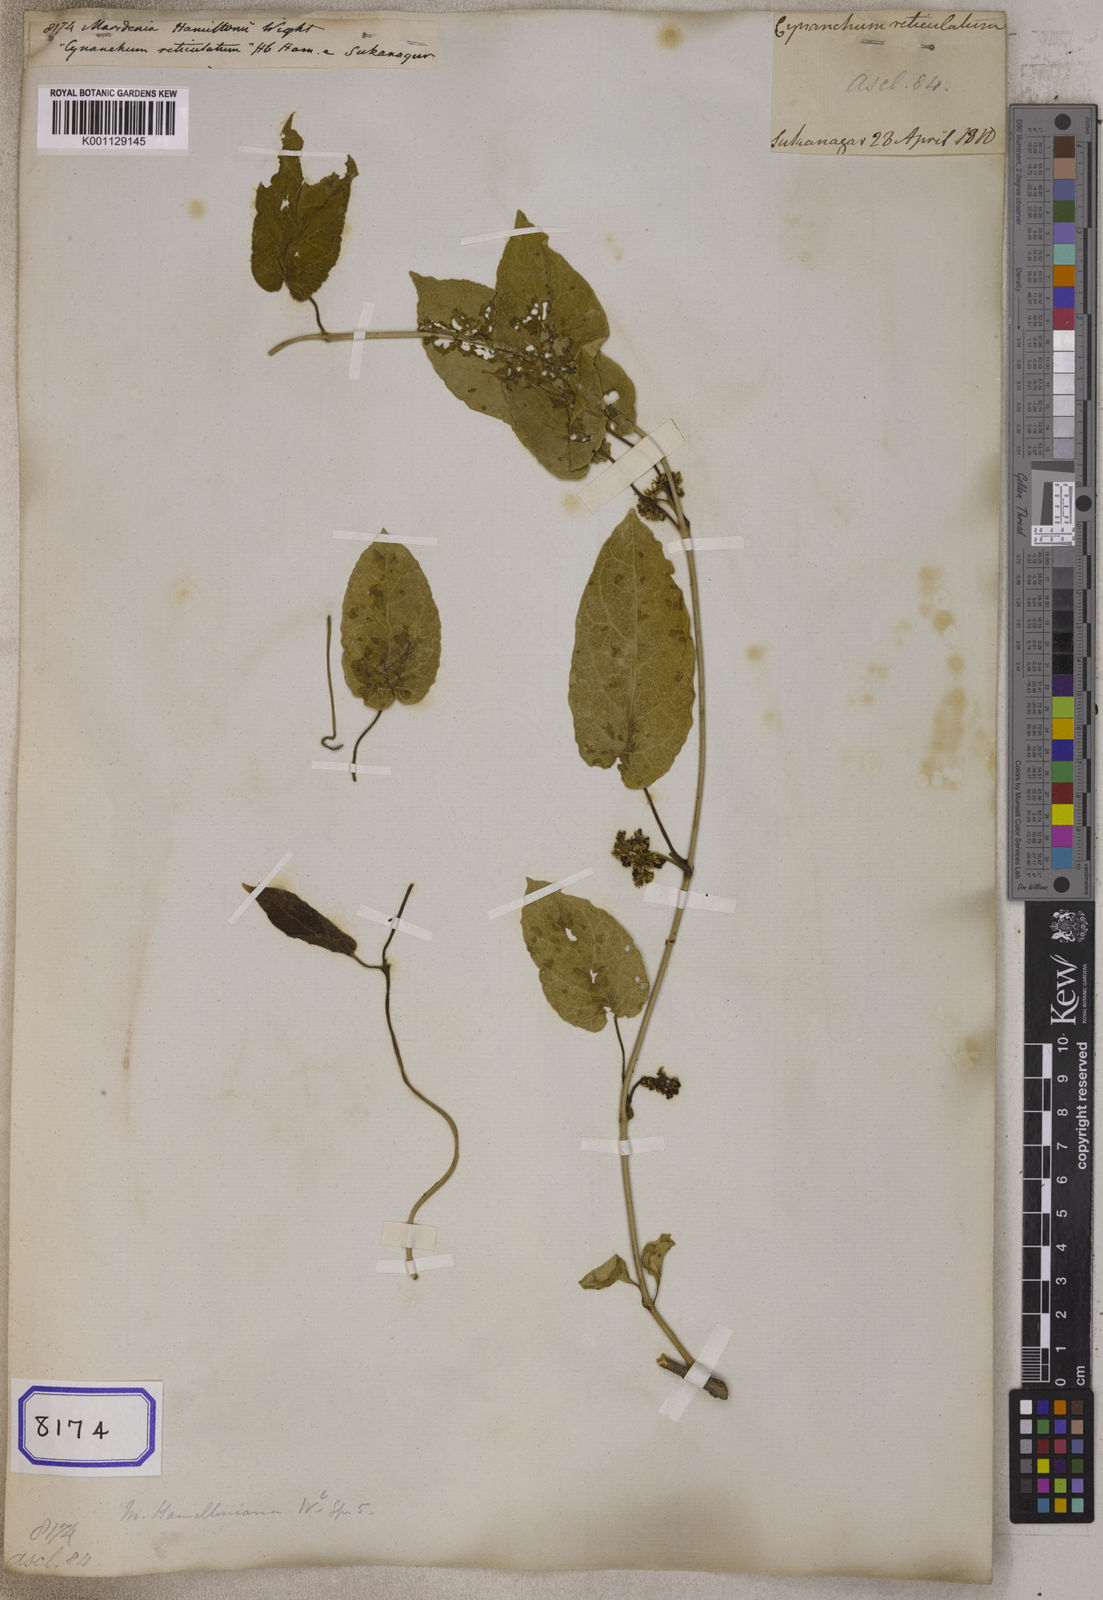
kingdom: Plantae
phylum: Tracheophyta
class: Magnoliopsida
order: Gentianales
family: Apocynaceae
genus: Leichhardtia
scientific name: Leichhardtia hamiltonii
